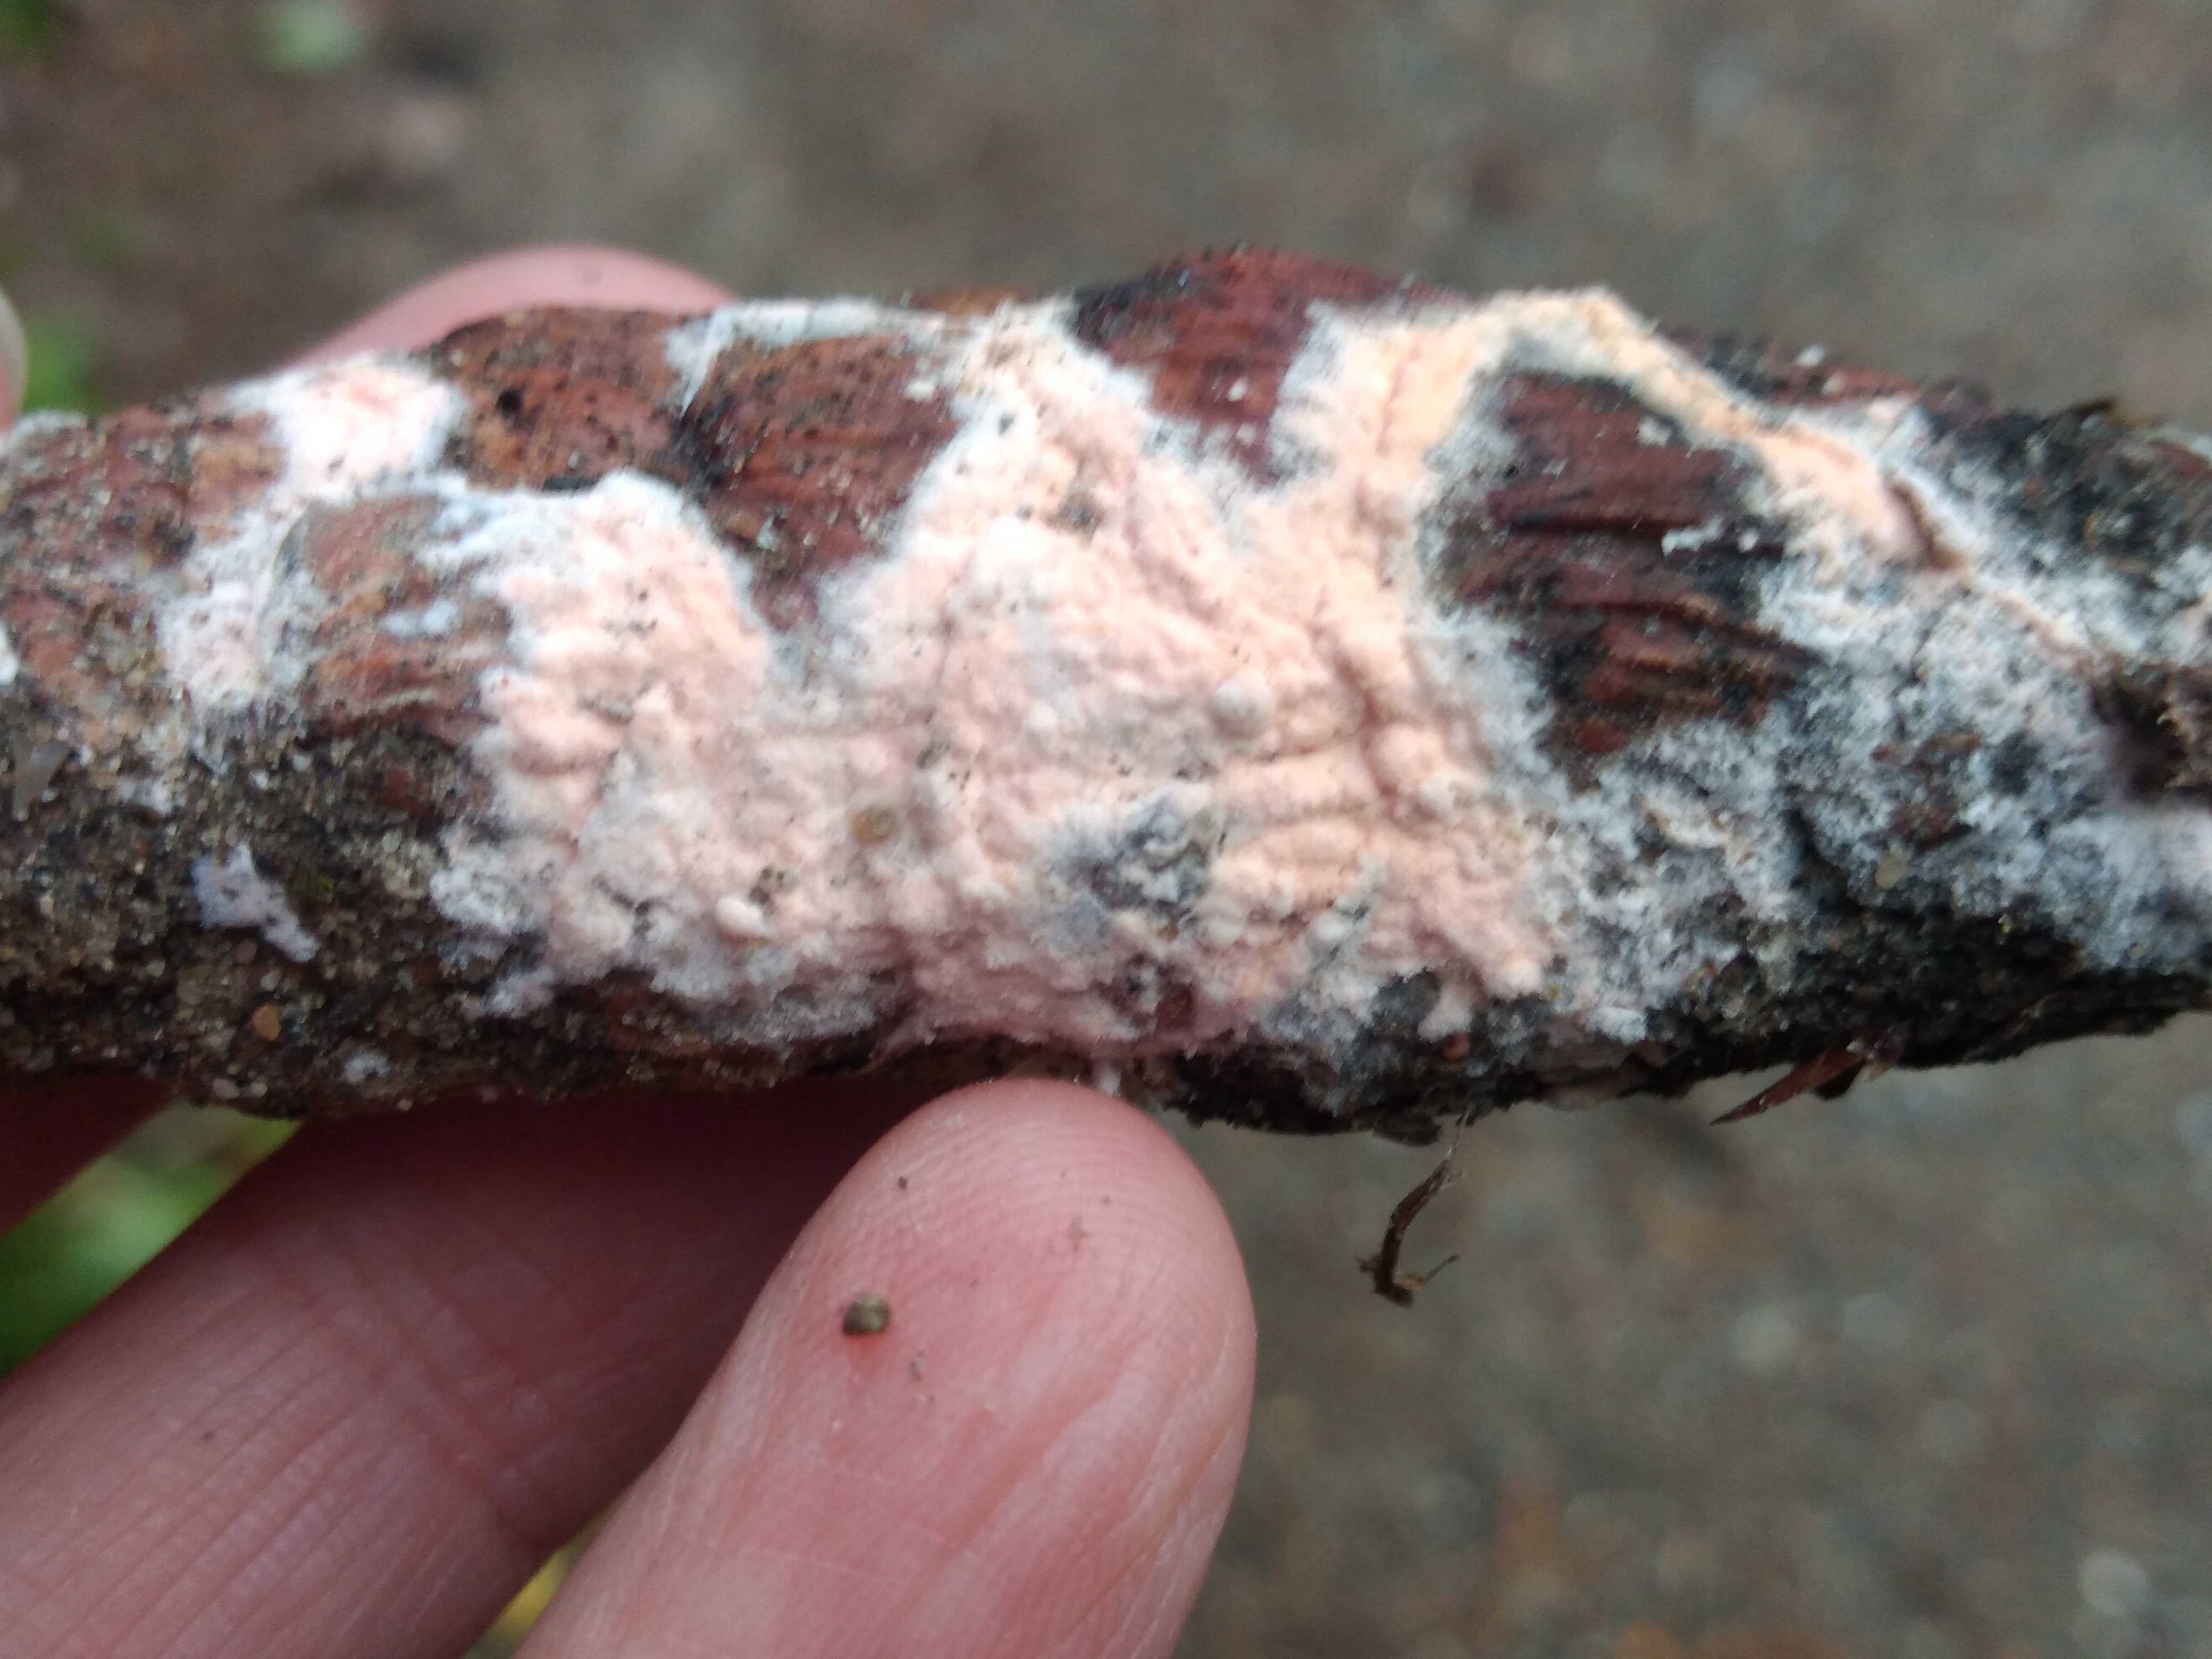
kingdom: Fungi
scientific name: Fungi
